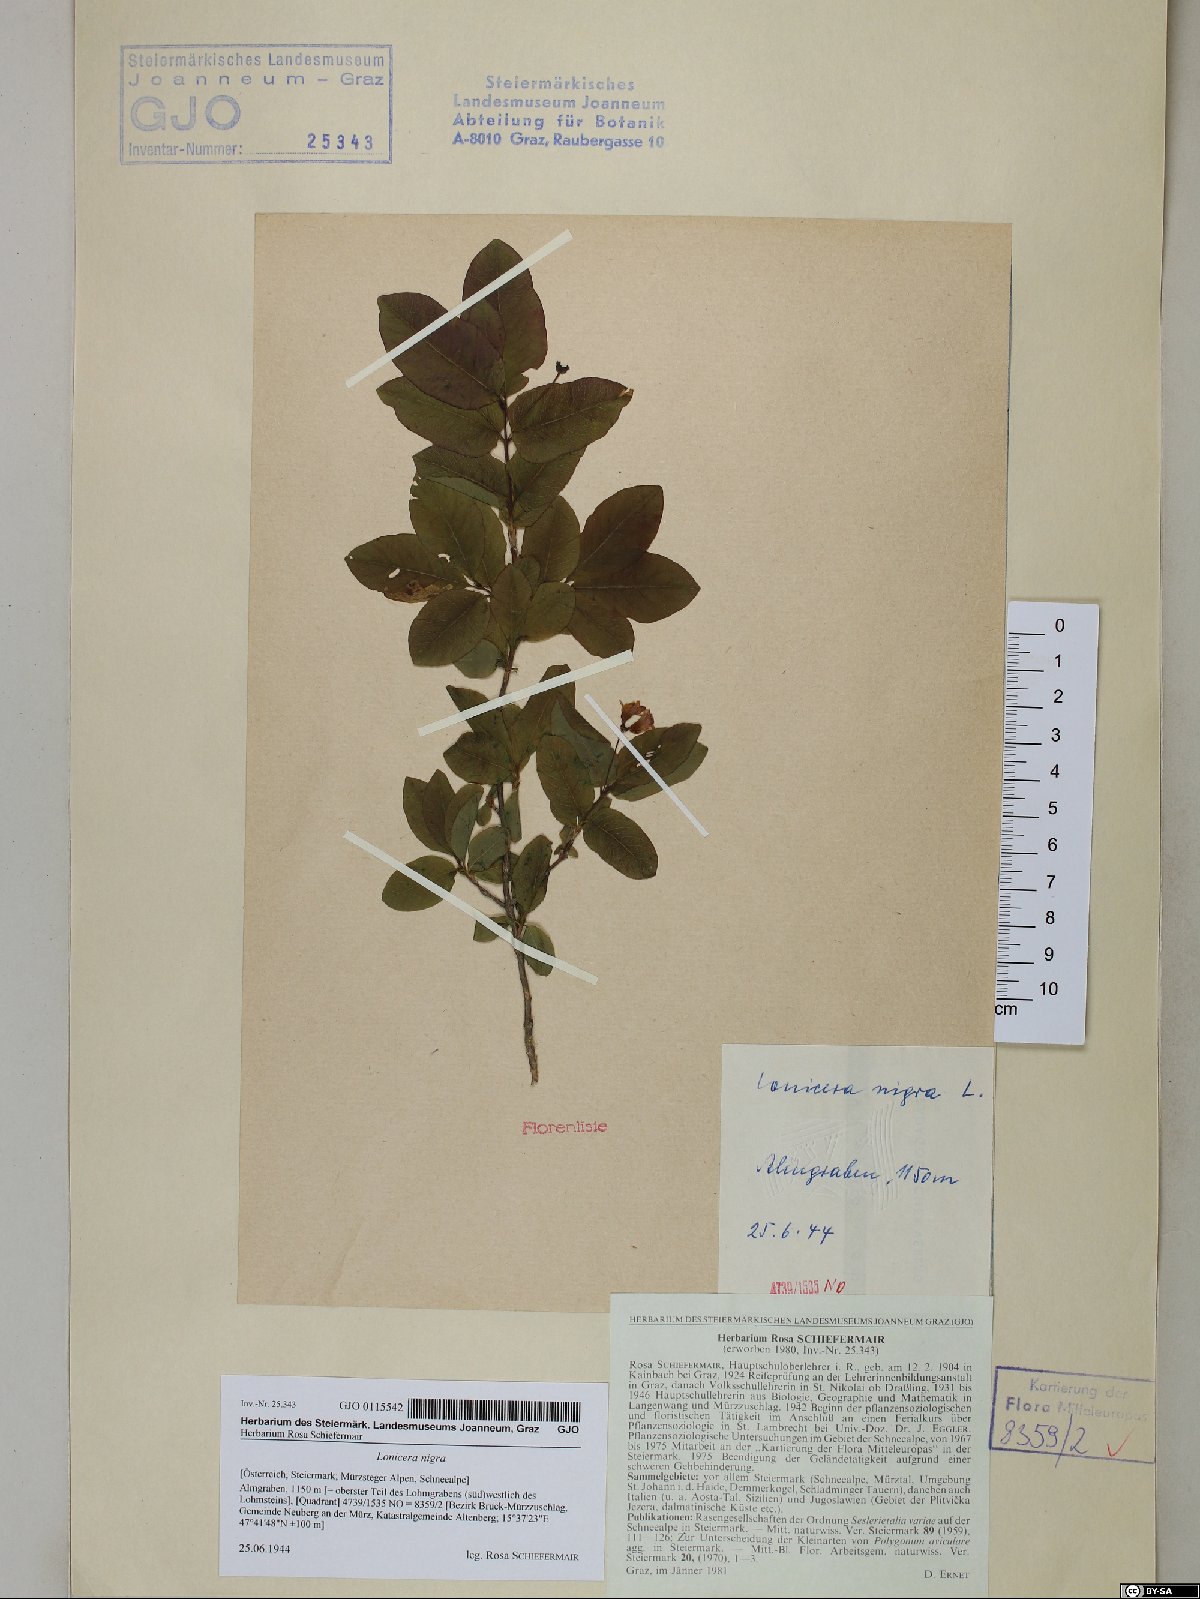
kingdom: Plantae
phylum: Tracheophyta
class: Magnoliopsida
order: Dipsacales
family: Caprifoliaceae
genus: Lonicera
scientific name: Lonicera nigra
